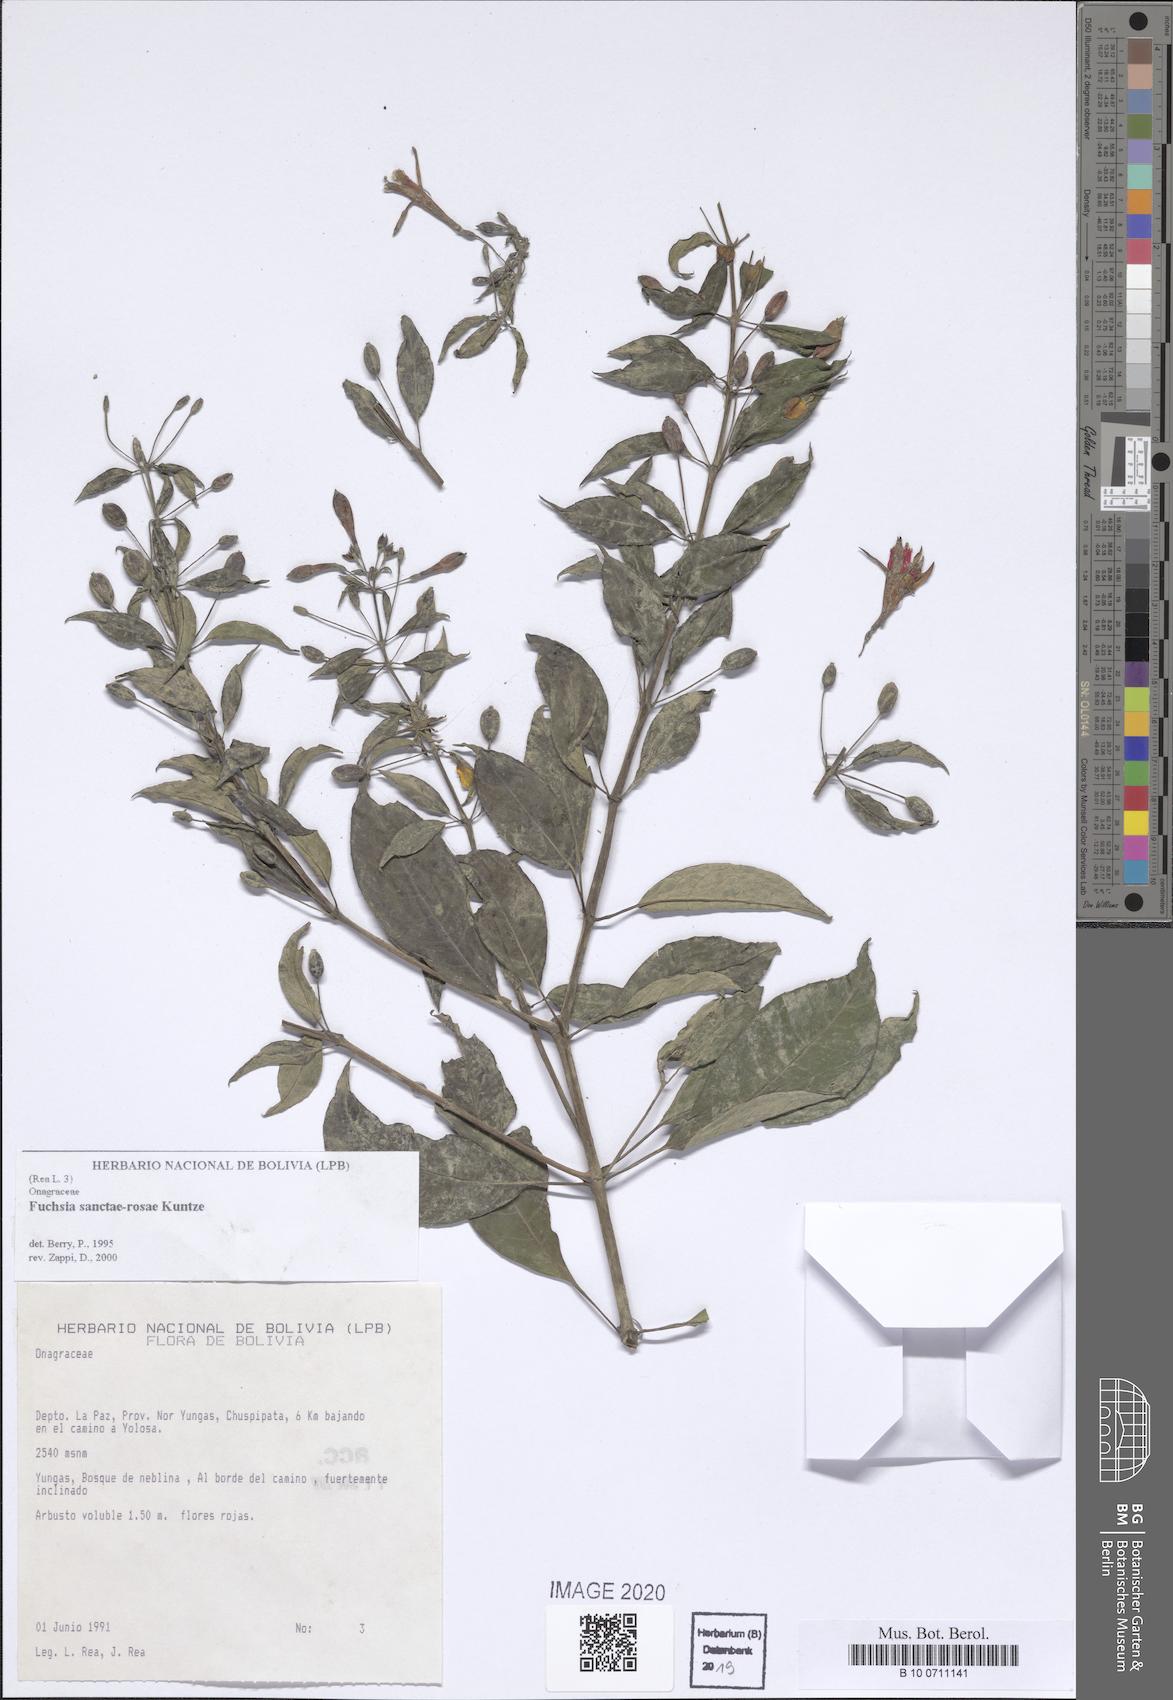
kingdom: Plantae
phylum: Tracheophyta
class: Magnoliopsida
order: Myrtales
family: Onagraceae
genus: Fuchsia
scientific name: Fuchsia sanctae-rosae
